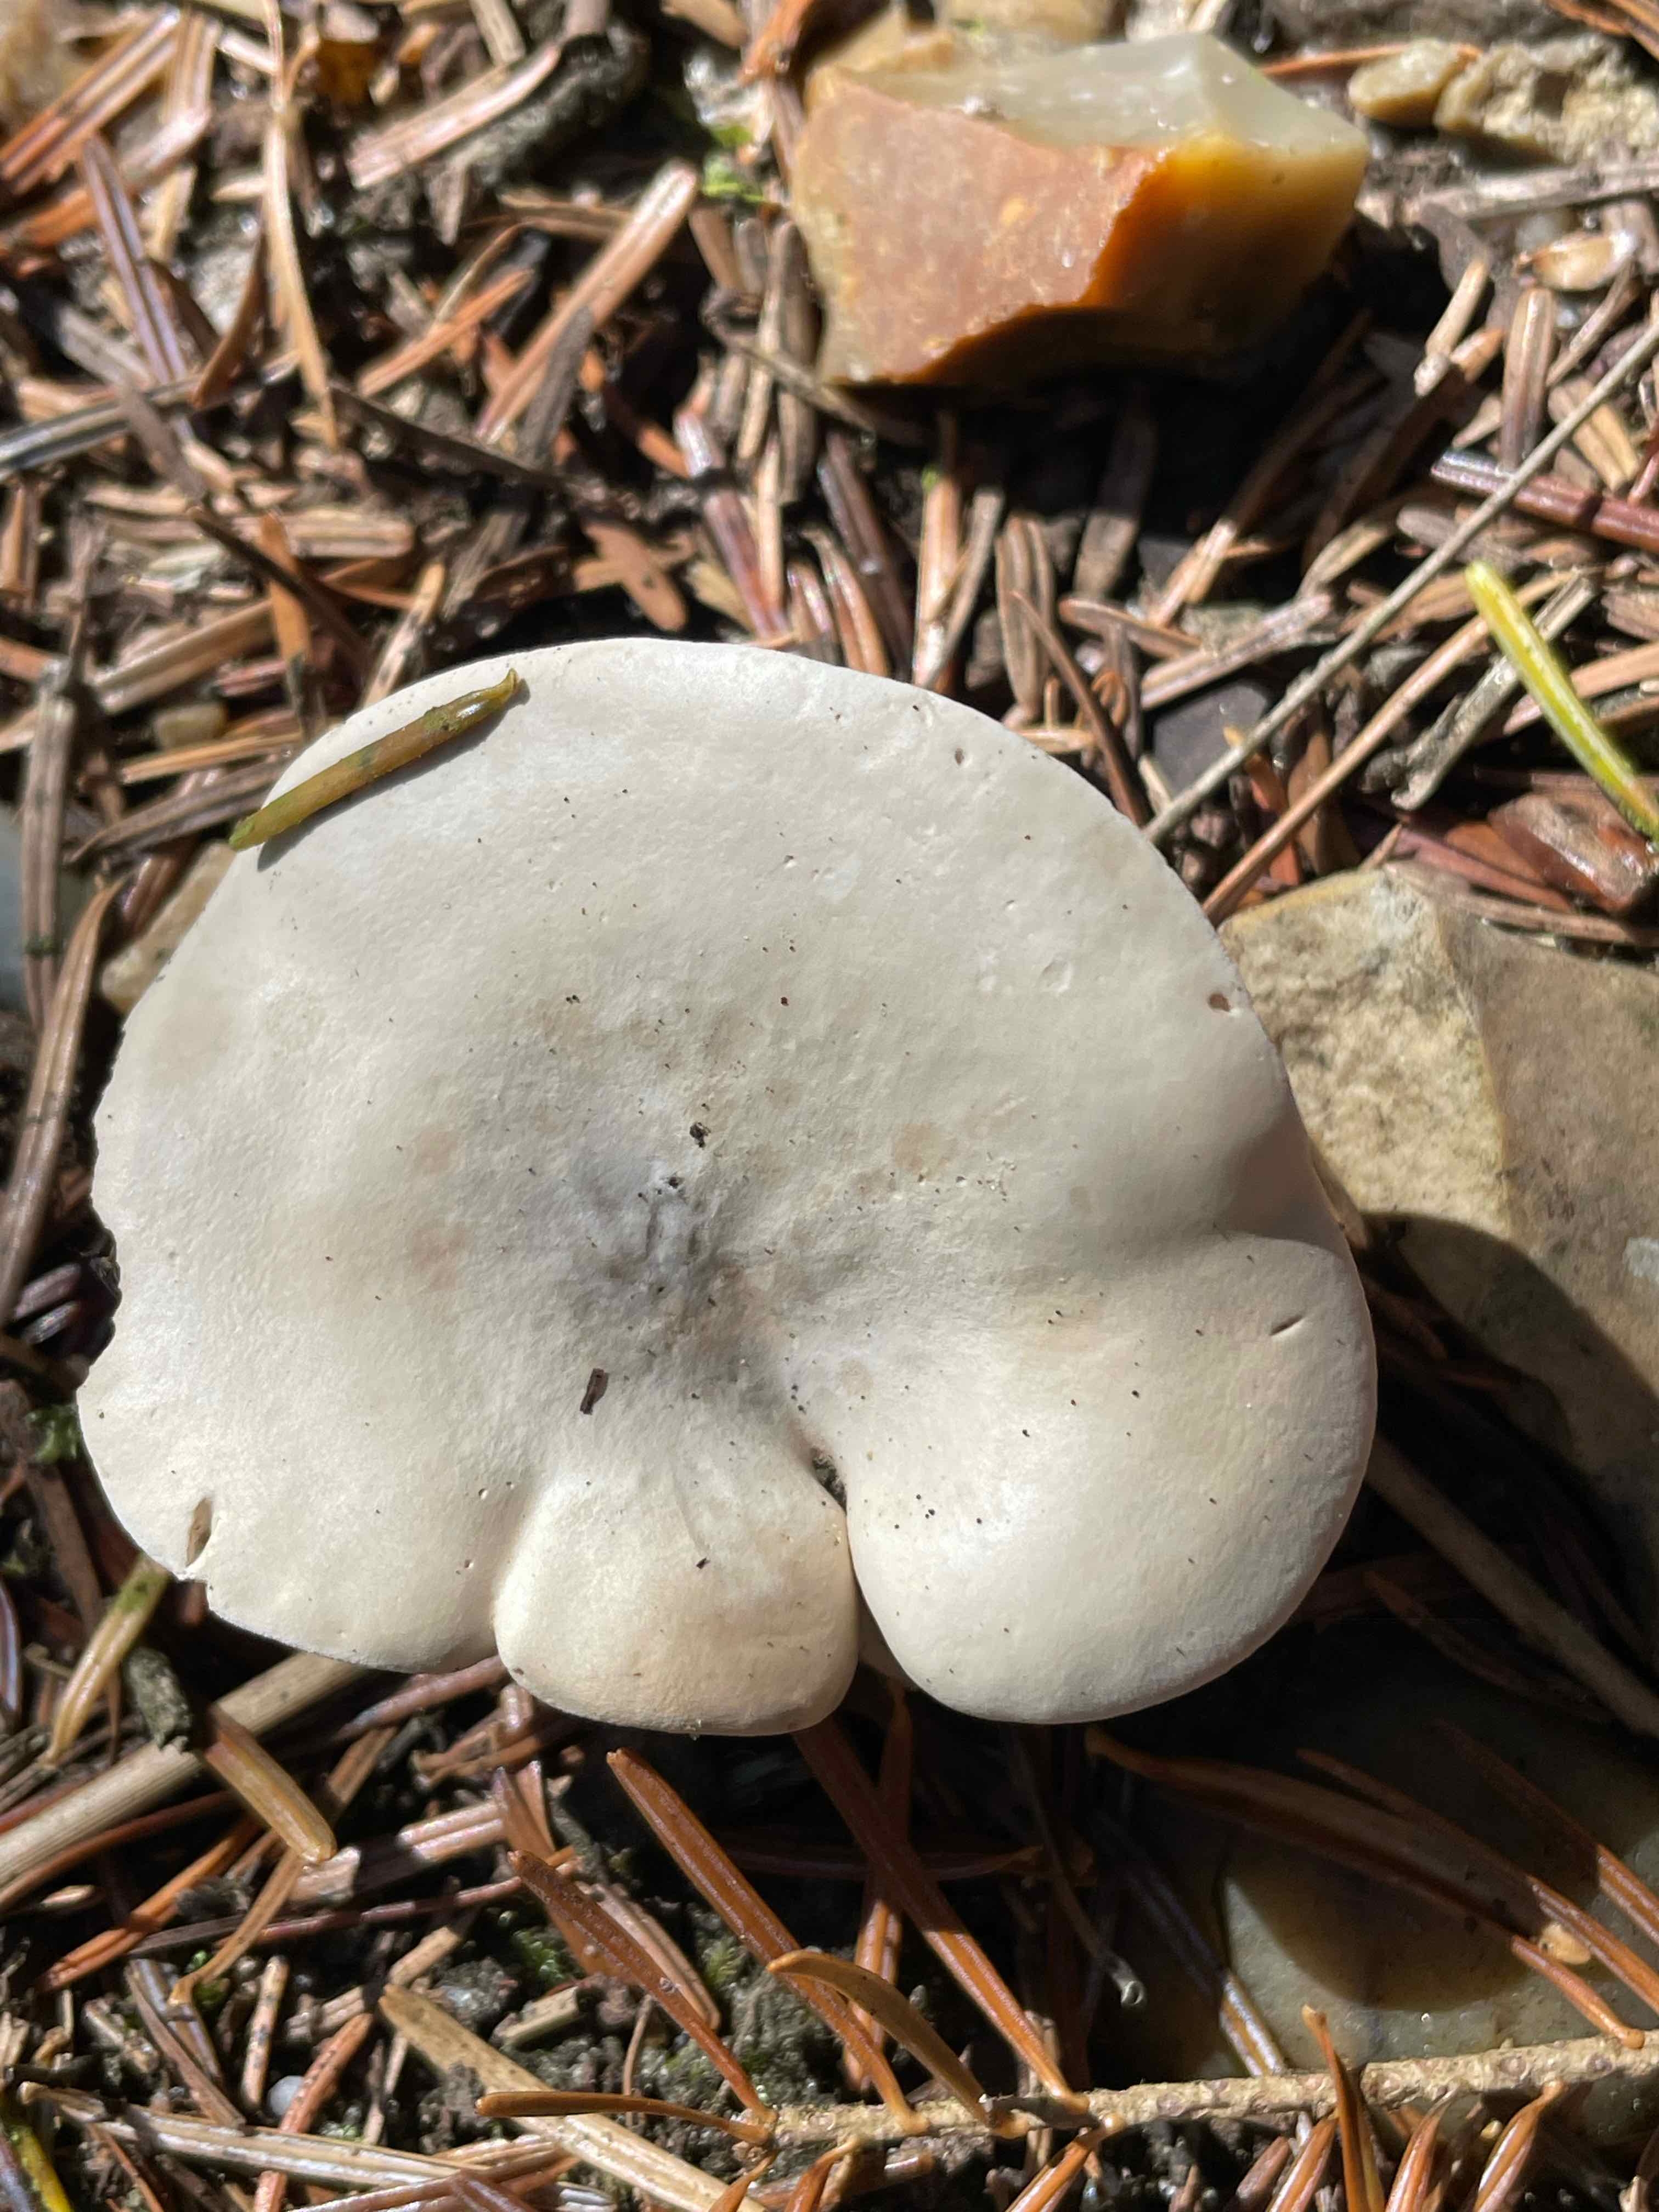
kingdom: Fungi
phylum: Basidiomycota
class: Agaricomycetes
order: Agaricales
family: Entolomataceae
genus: Clitopilus
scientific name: Clitopilus prunulus
